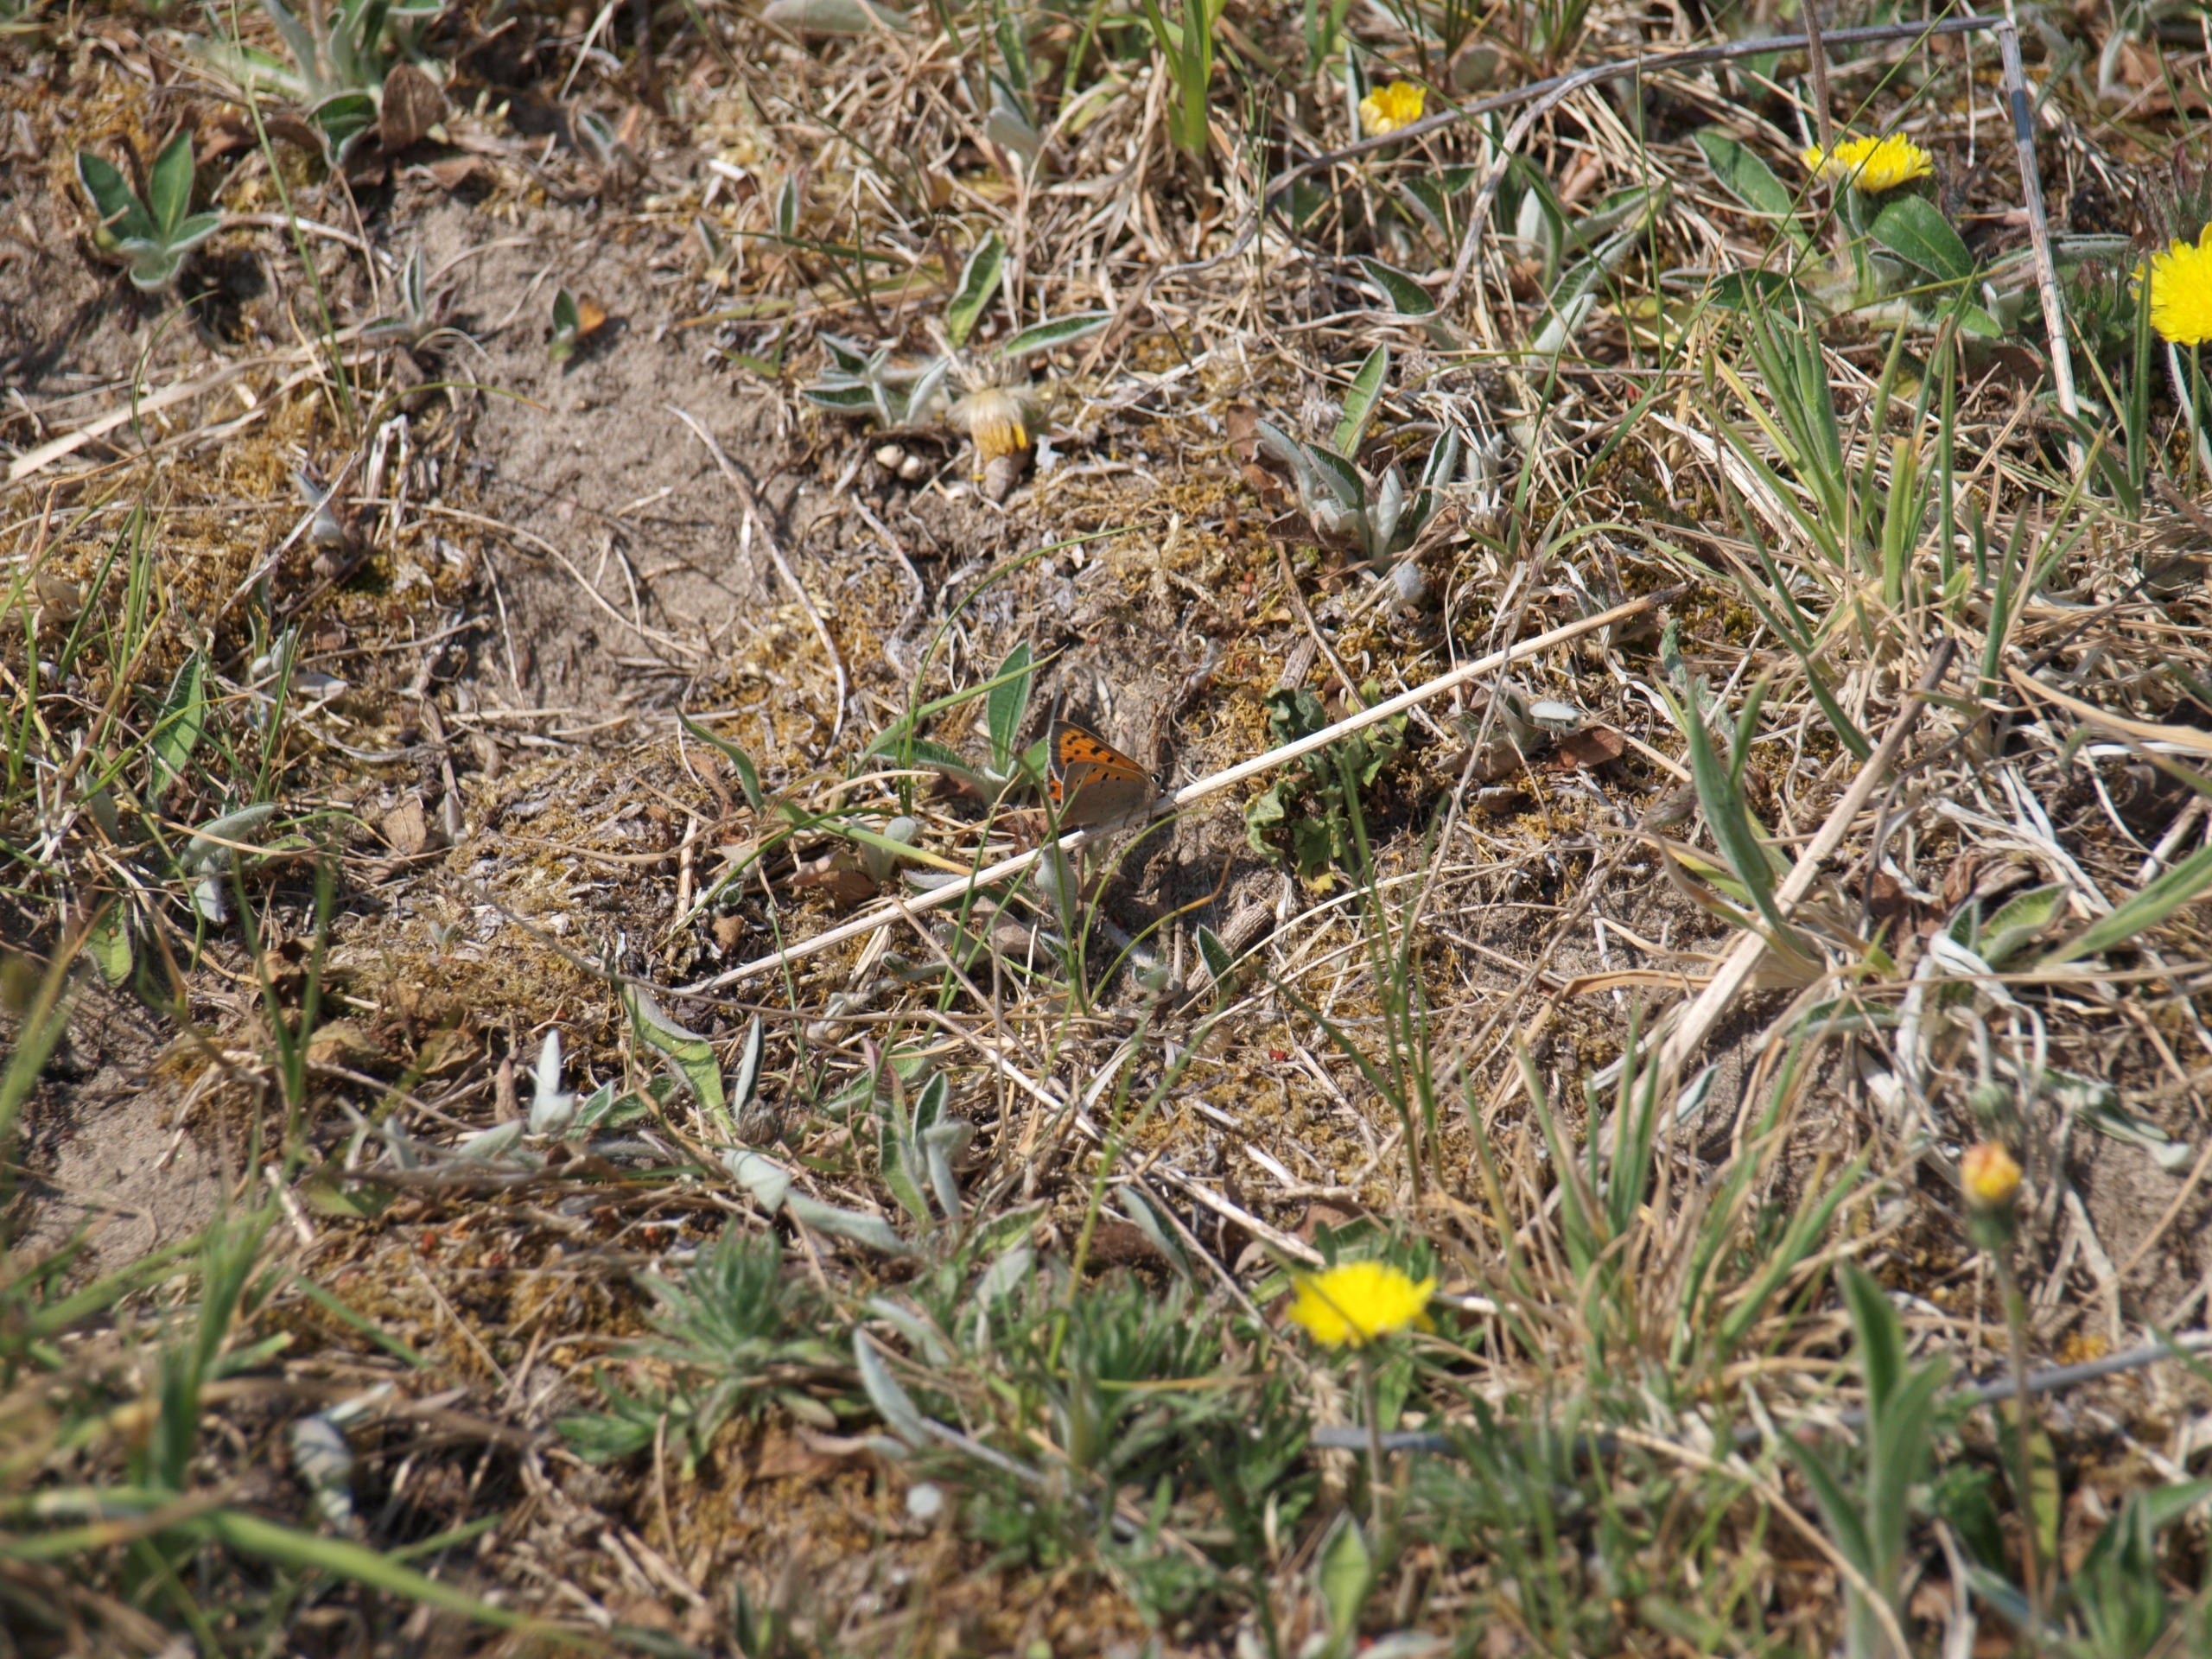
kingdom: Animalia
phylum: Arthropoda
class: Insecta
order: Lepidoptera
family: Lycaenidae
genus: Lycaena
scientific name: Lycaena phlaeas
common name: Lille ildfugl
